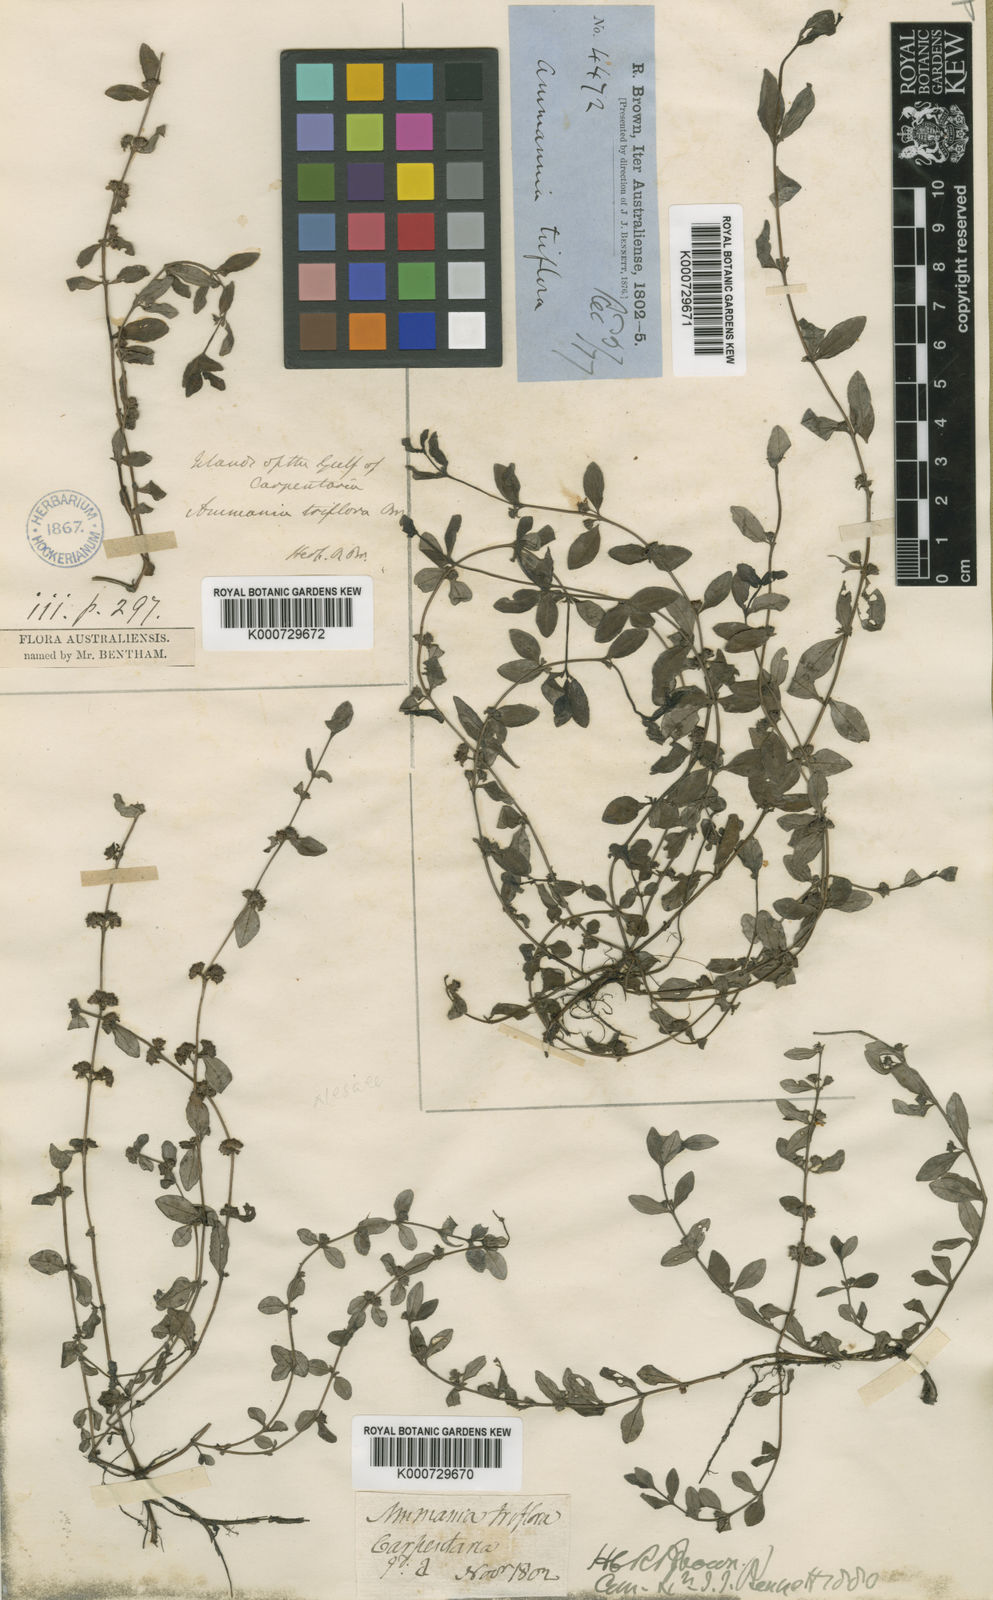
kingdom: Plantae
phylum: Tracheophyta
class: Magnoliopsida
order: Myrtales
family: Lythraceae
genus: Ammannia
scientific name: Ammannia pubiflora
